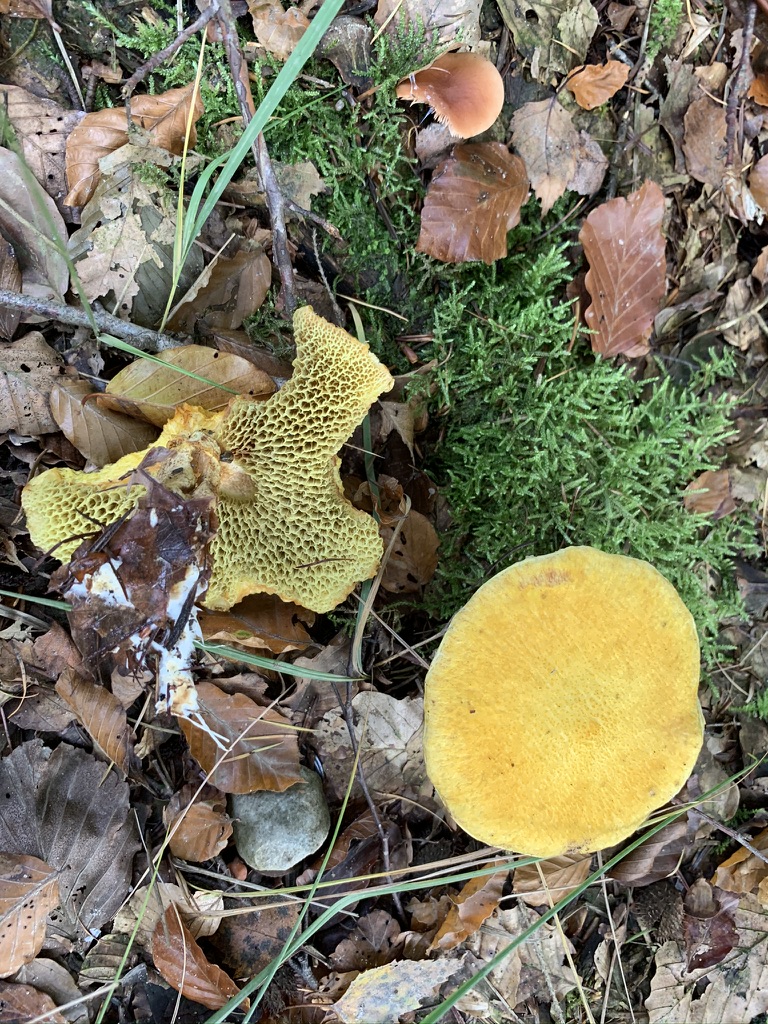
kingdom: Fungi
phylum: Basidiomycota
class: Agaricomycetes
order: Boletales
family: Suillaceae
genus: Suillus
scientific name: Suillus cavipes
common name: hulstokket slimrørhat, gul form
